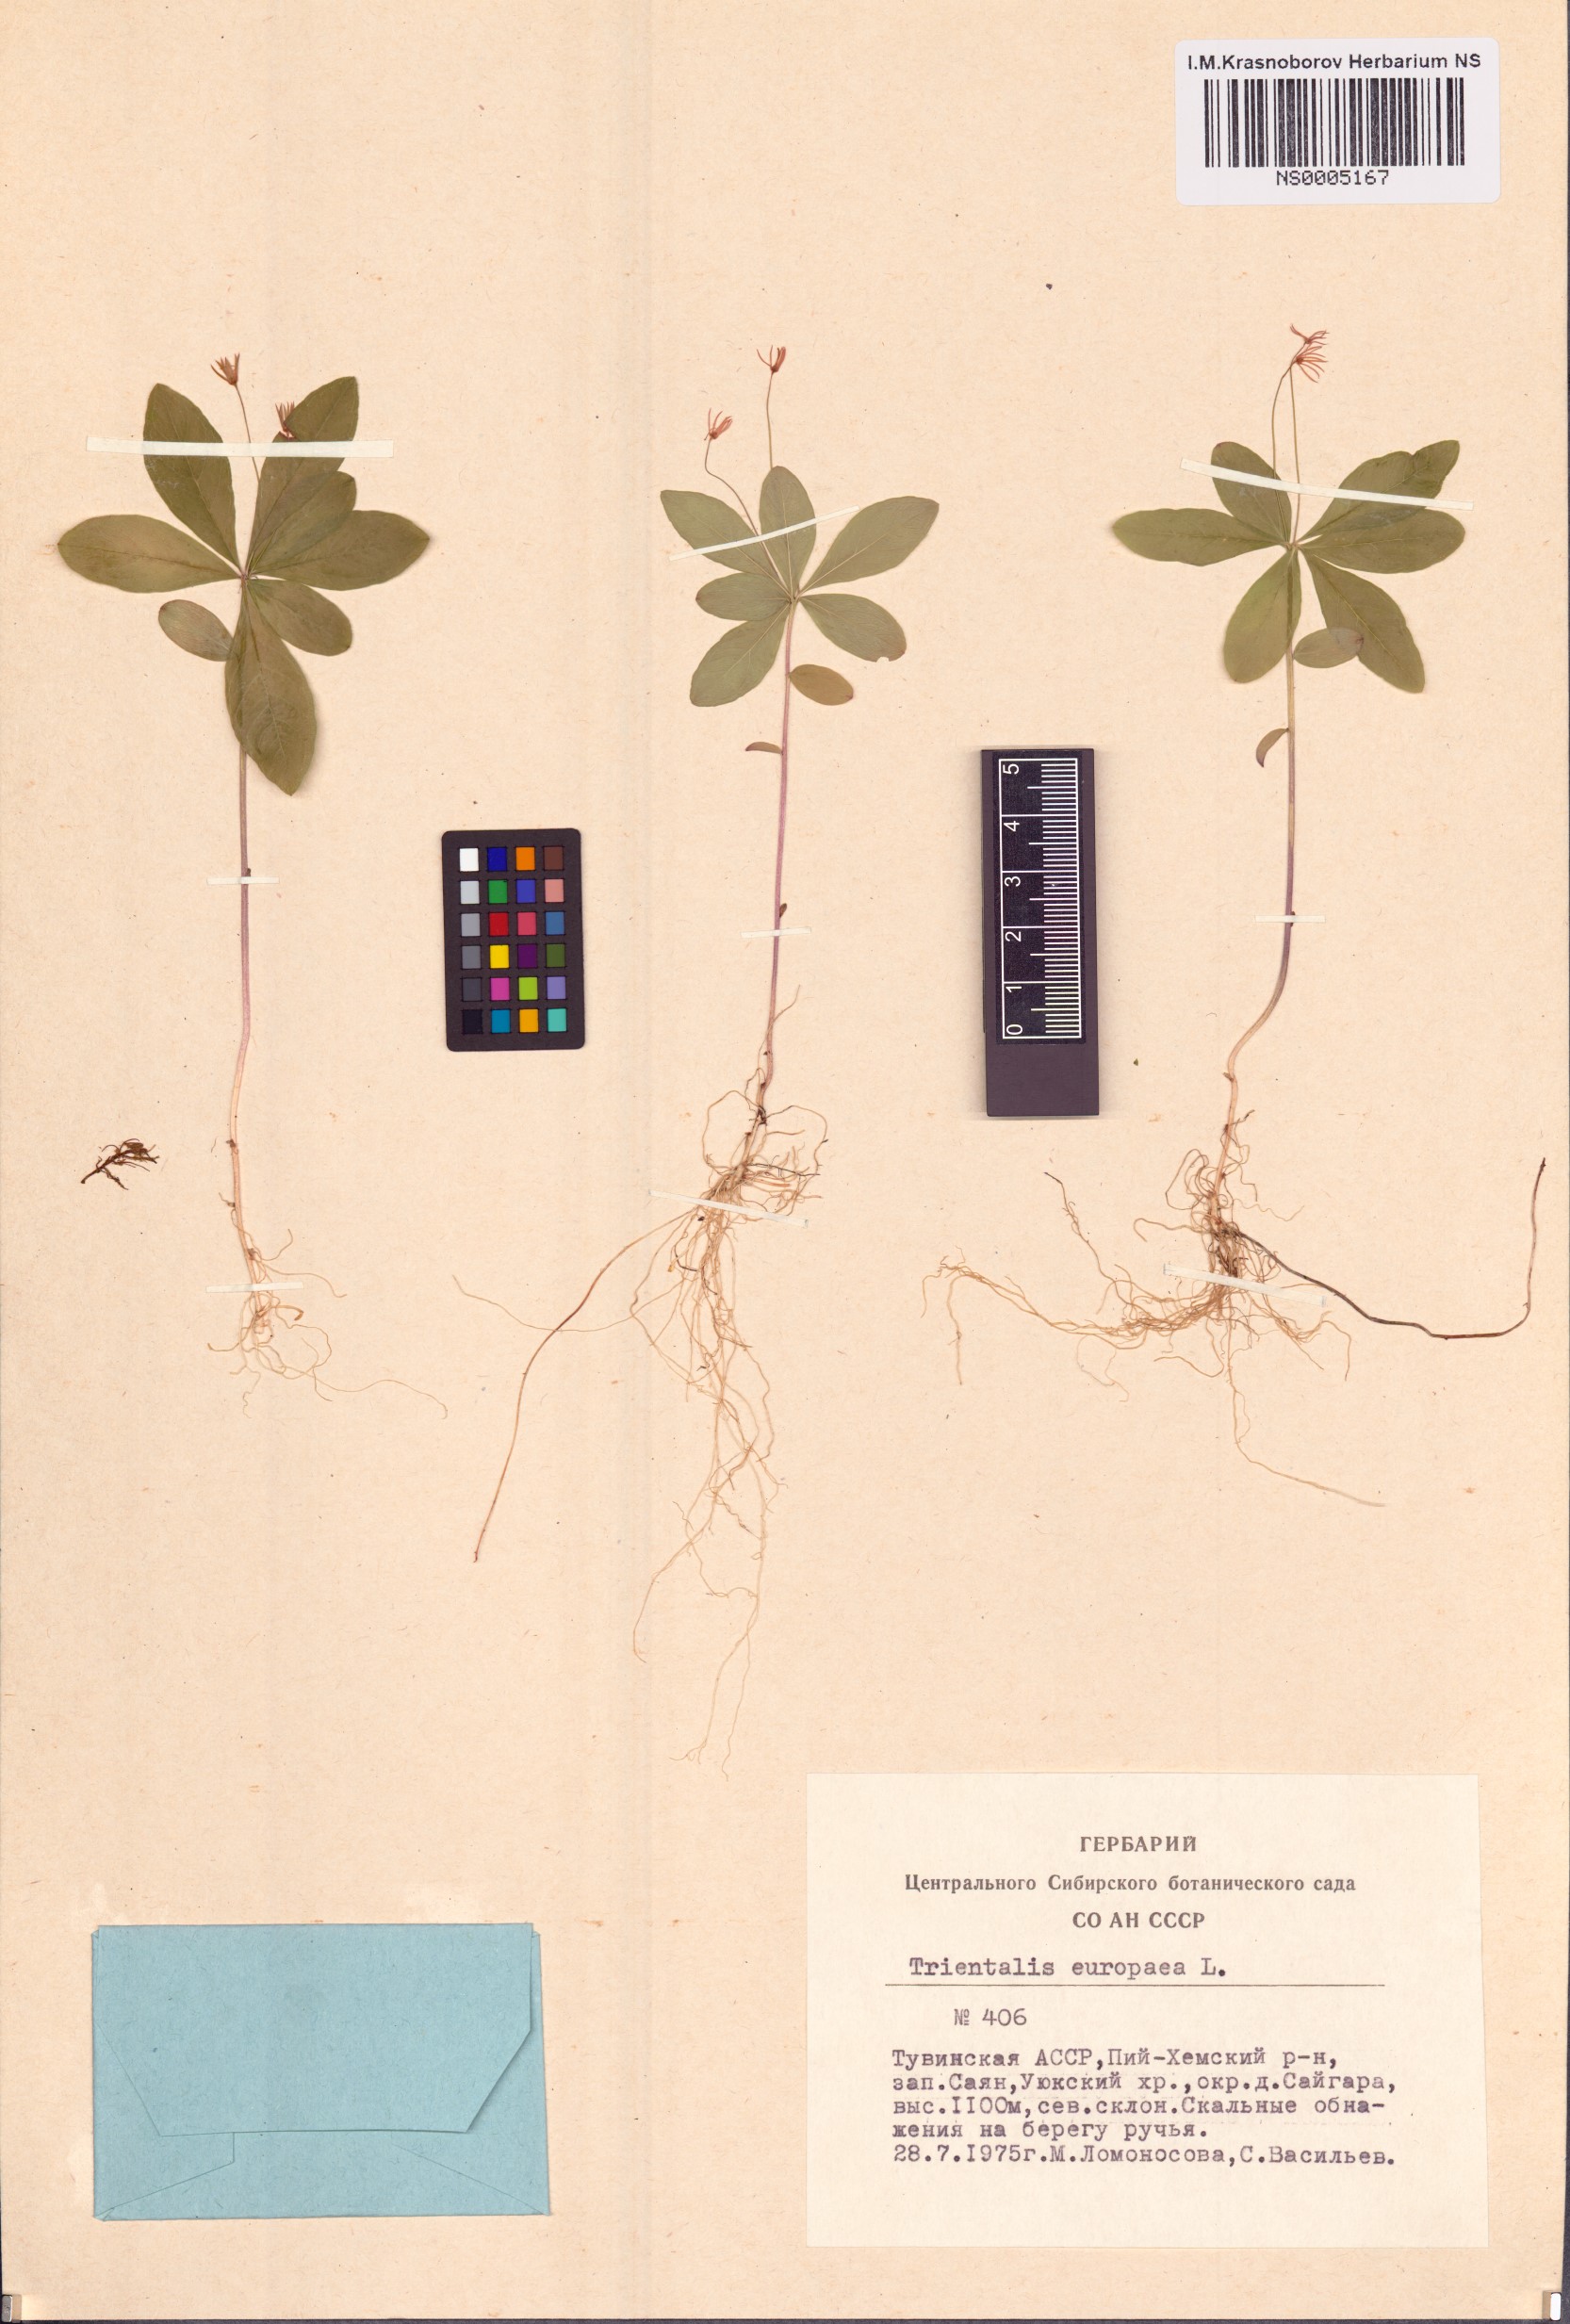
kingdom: Plantae
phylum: Tracheophyta
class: Magnoliopsida
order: Ericales
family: Primulaceae
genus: Lysimachia
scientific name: Lysimachia europaea
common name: Arctic starflower
